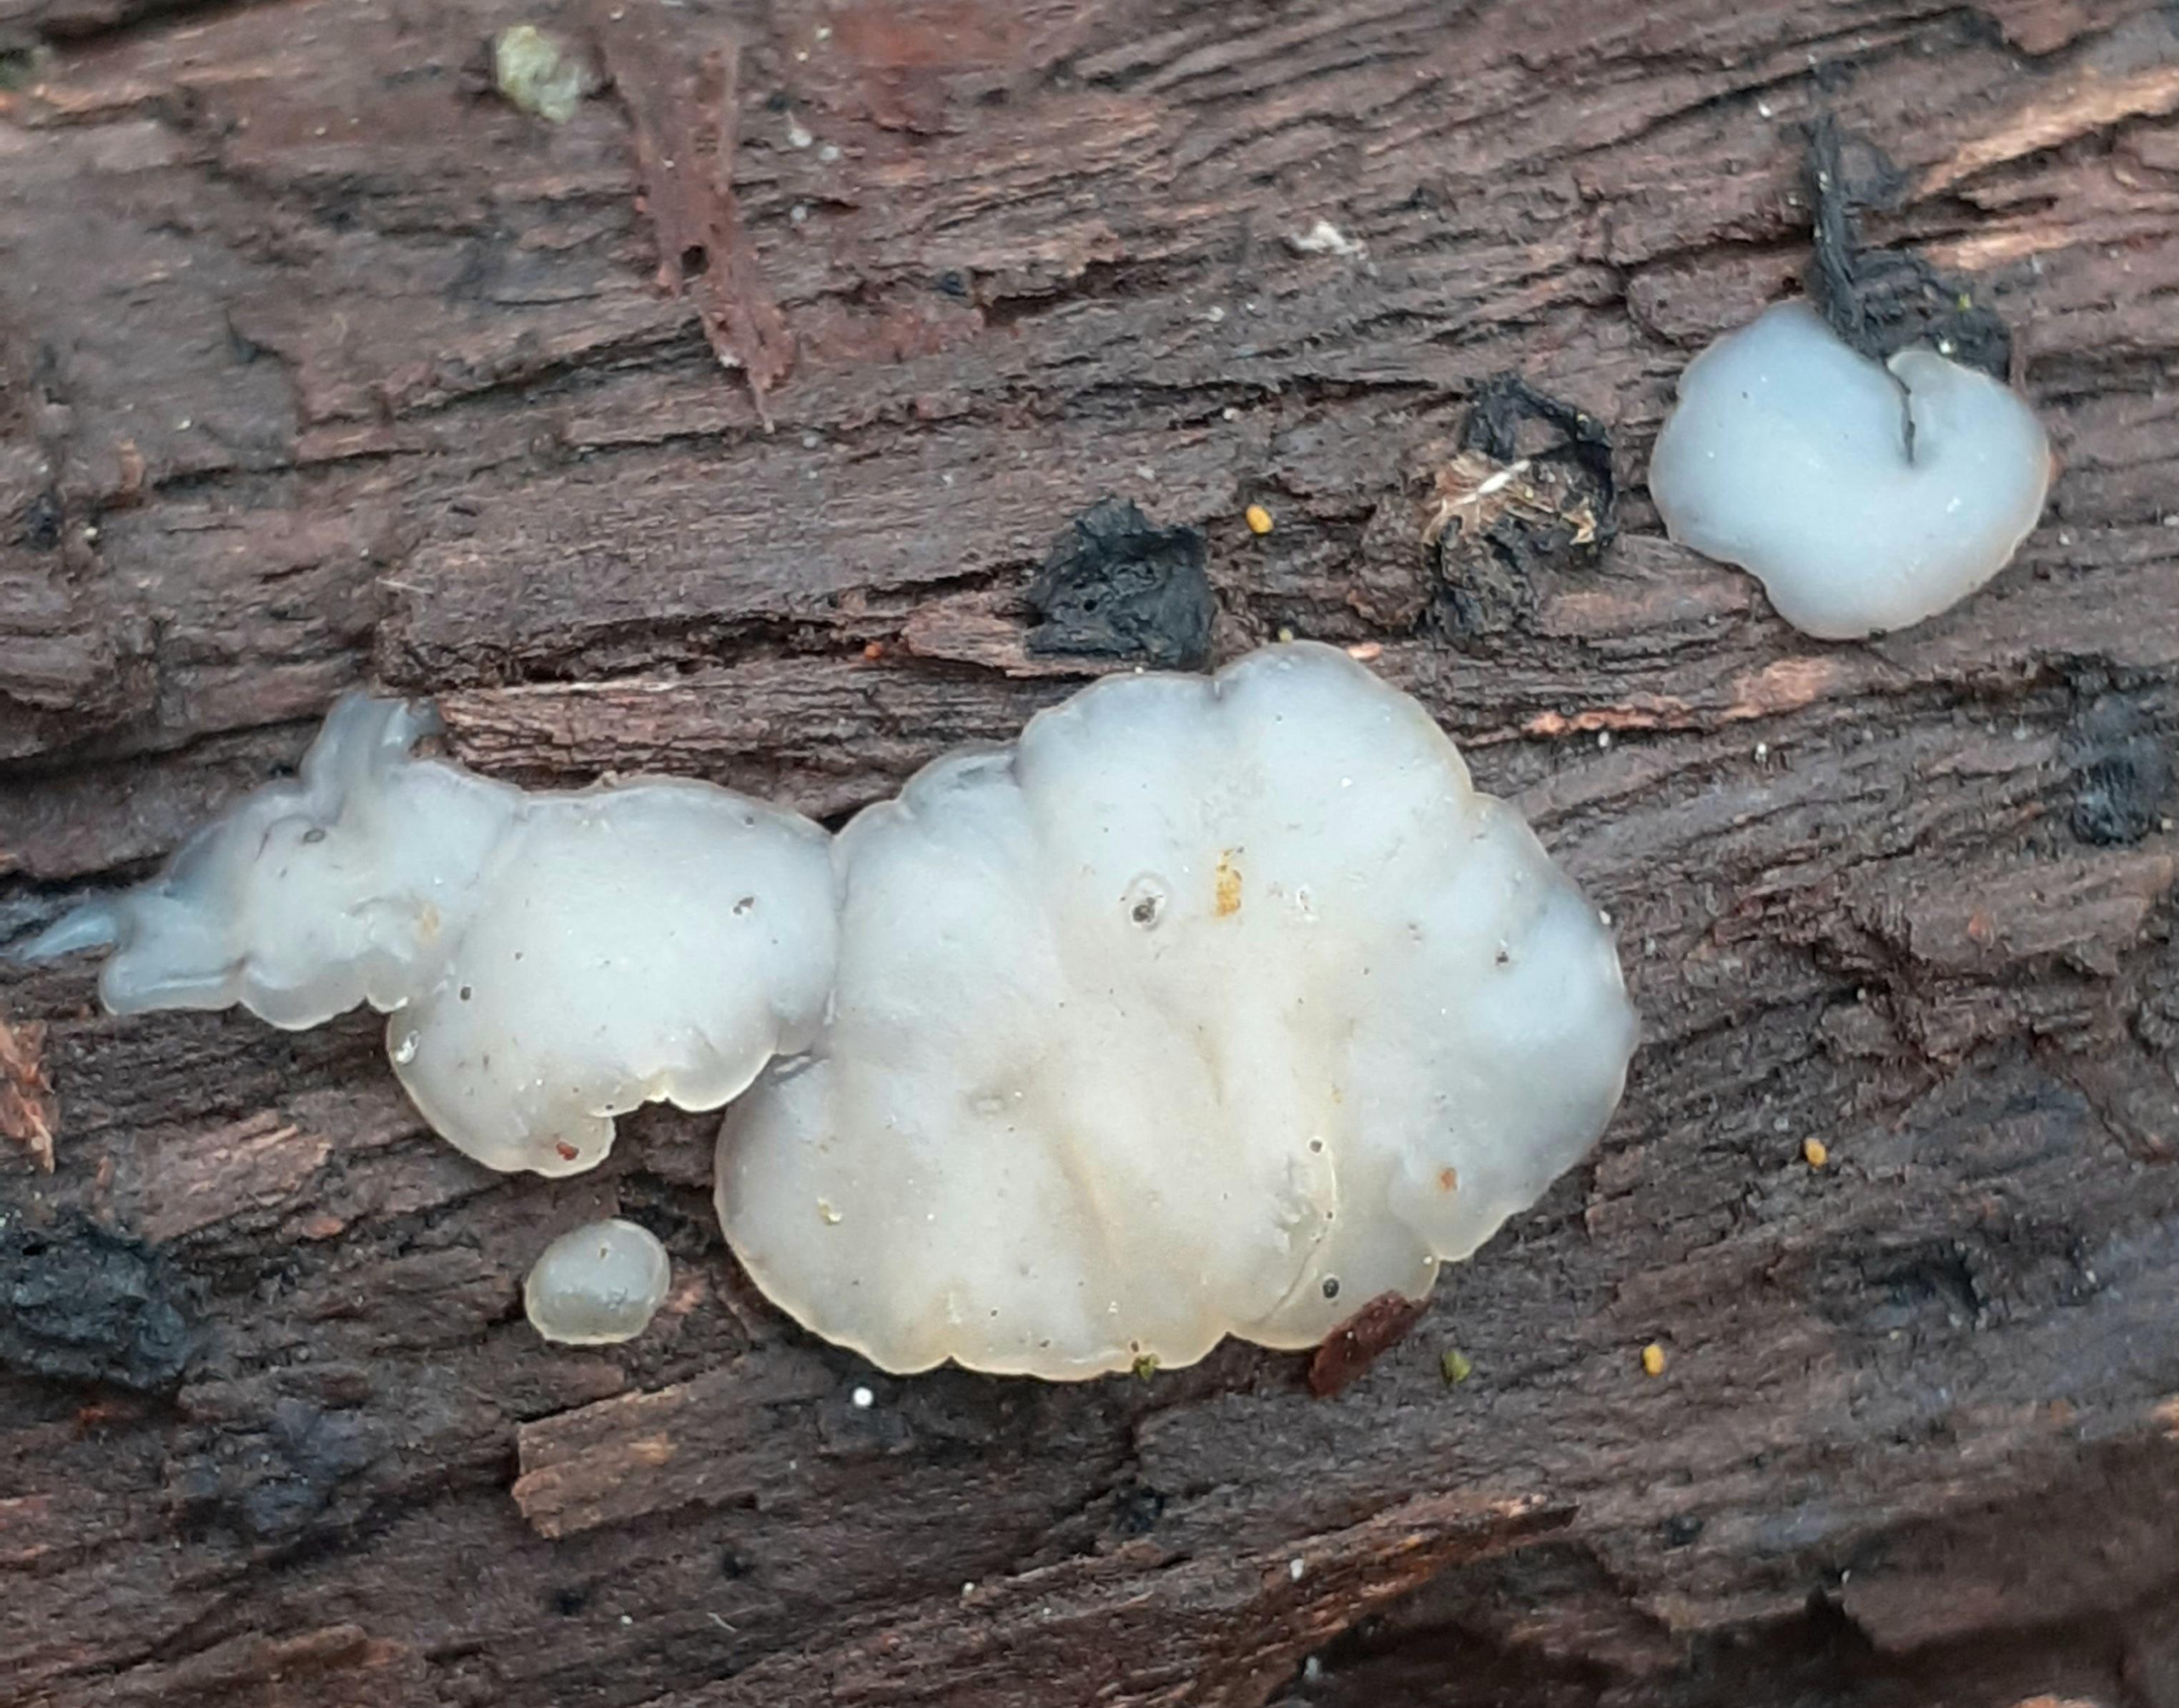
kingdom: Fungi
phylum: Basidiomycota
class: Agaricomycetes
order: Auriculariales
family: Auriculariaceae
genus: Exidia
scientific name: Exidia thuretiana
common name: hvidlig bævretop
